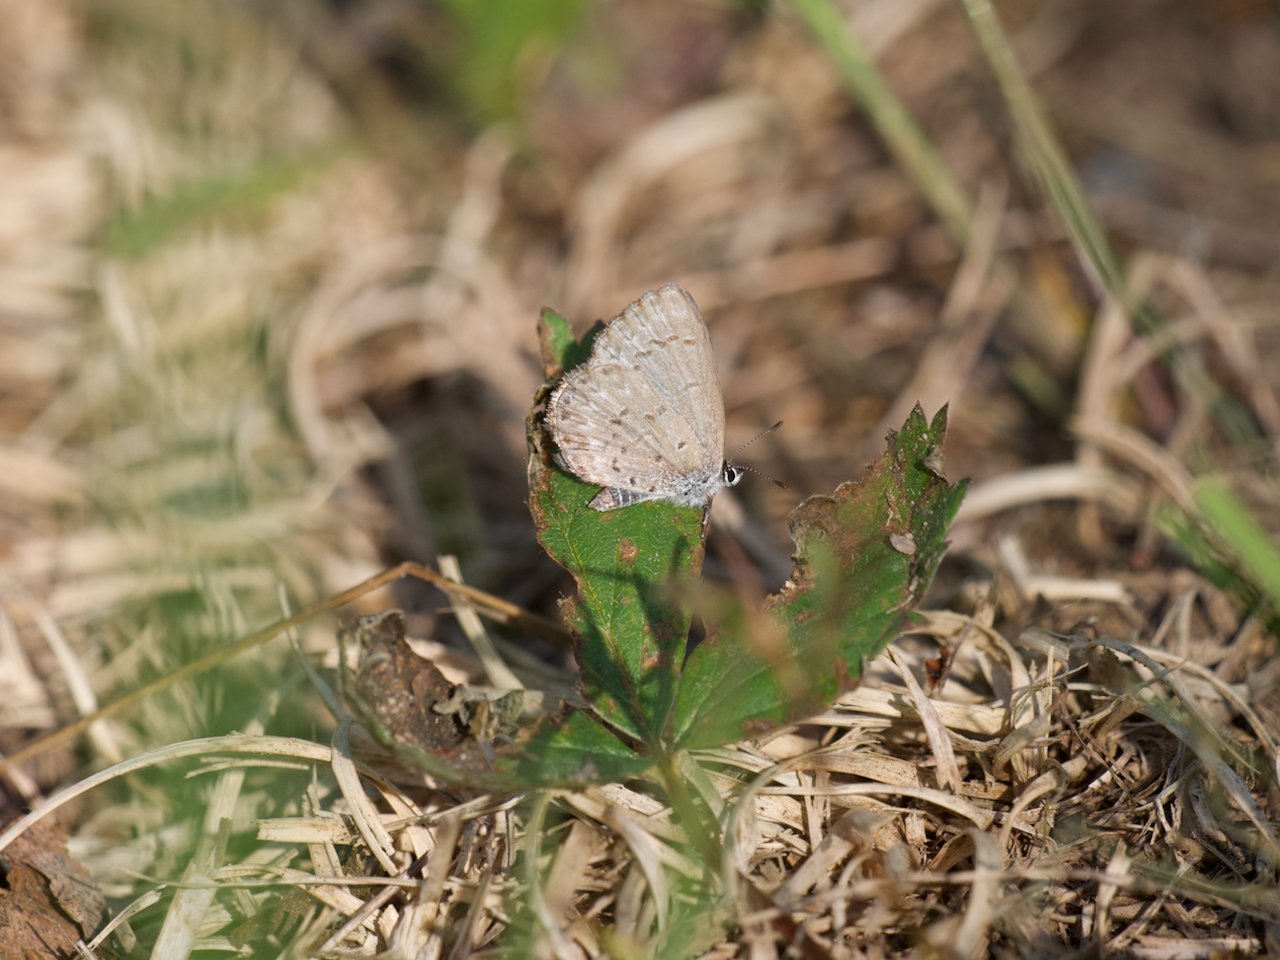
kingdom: Animalia
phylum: Arthropoda
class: Insecta
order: Lepidoptera
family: Lycaenidae
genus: Celastrina
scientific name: Celastrina lucia
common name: Northern Spring Azure
